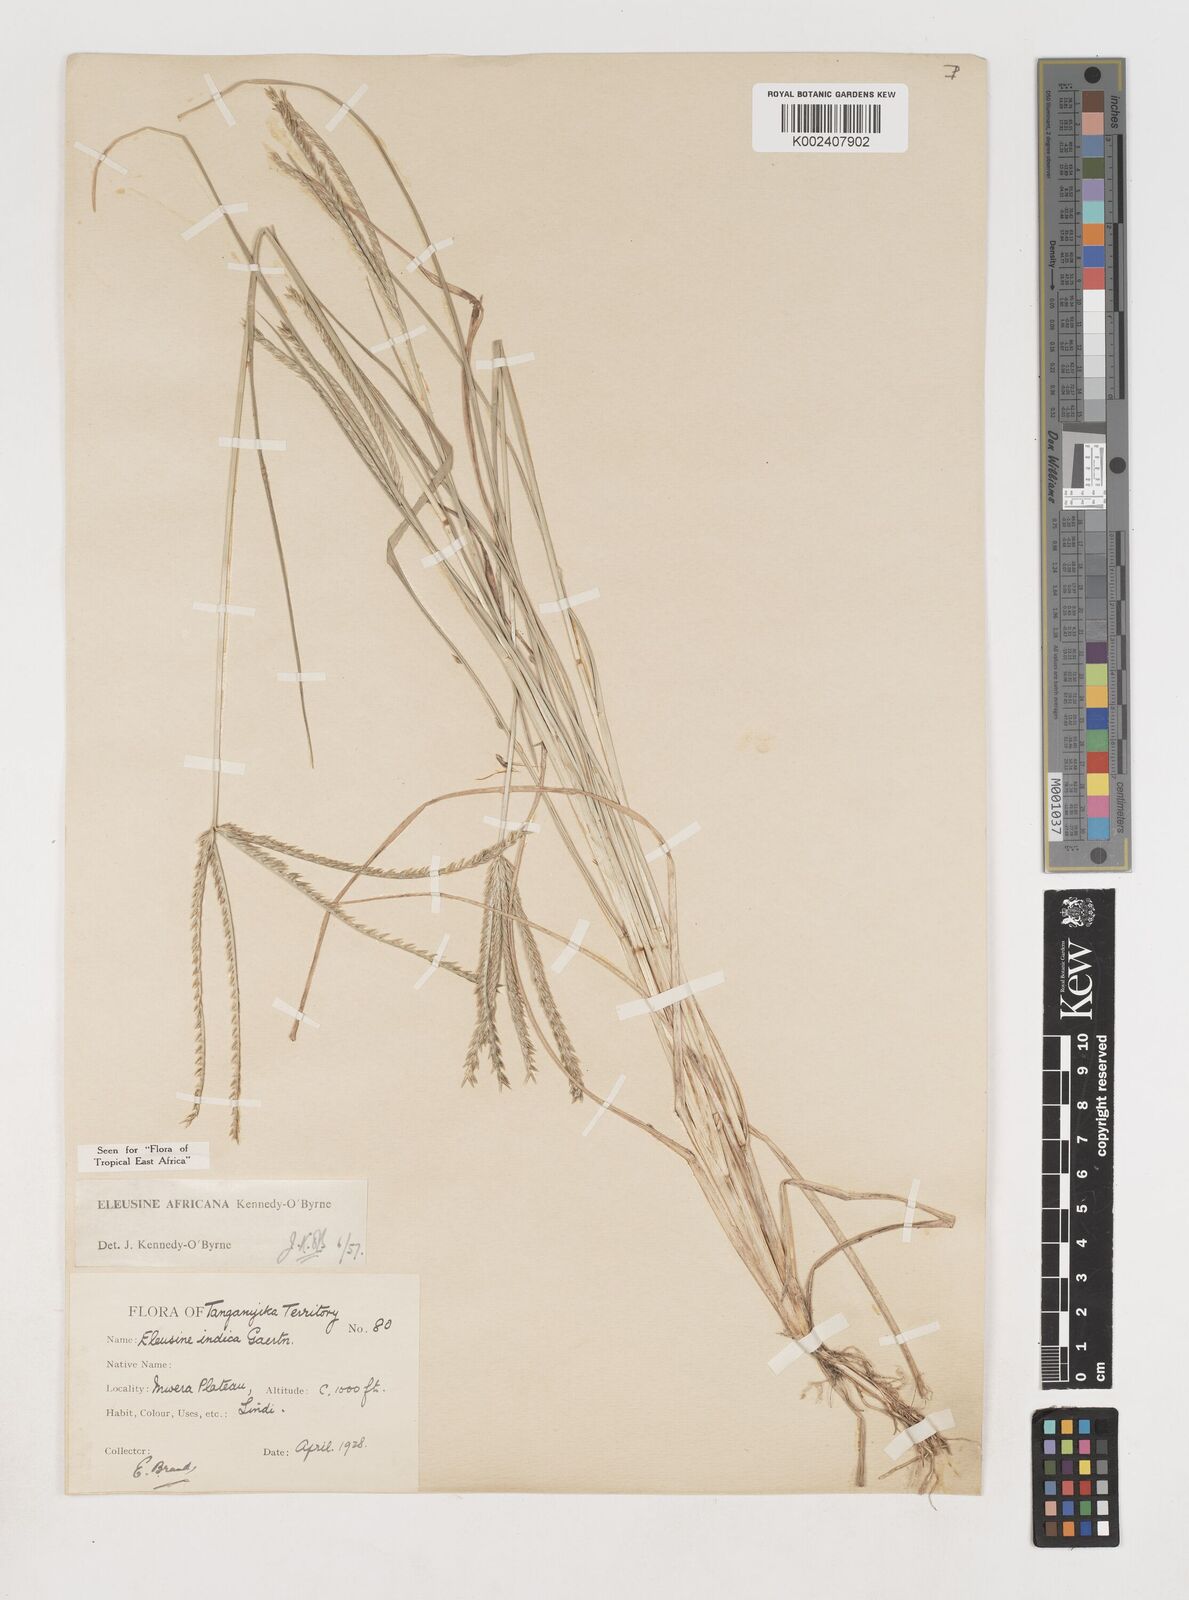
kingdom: Plantae
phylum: Tracheophyta
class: Liliopsida
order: Poales
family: Poaceae
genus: Eleusine
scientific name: Eleusine africana
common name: Wild african finger millet
